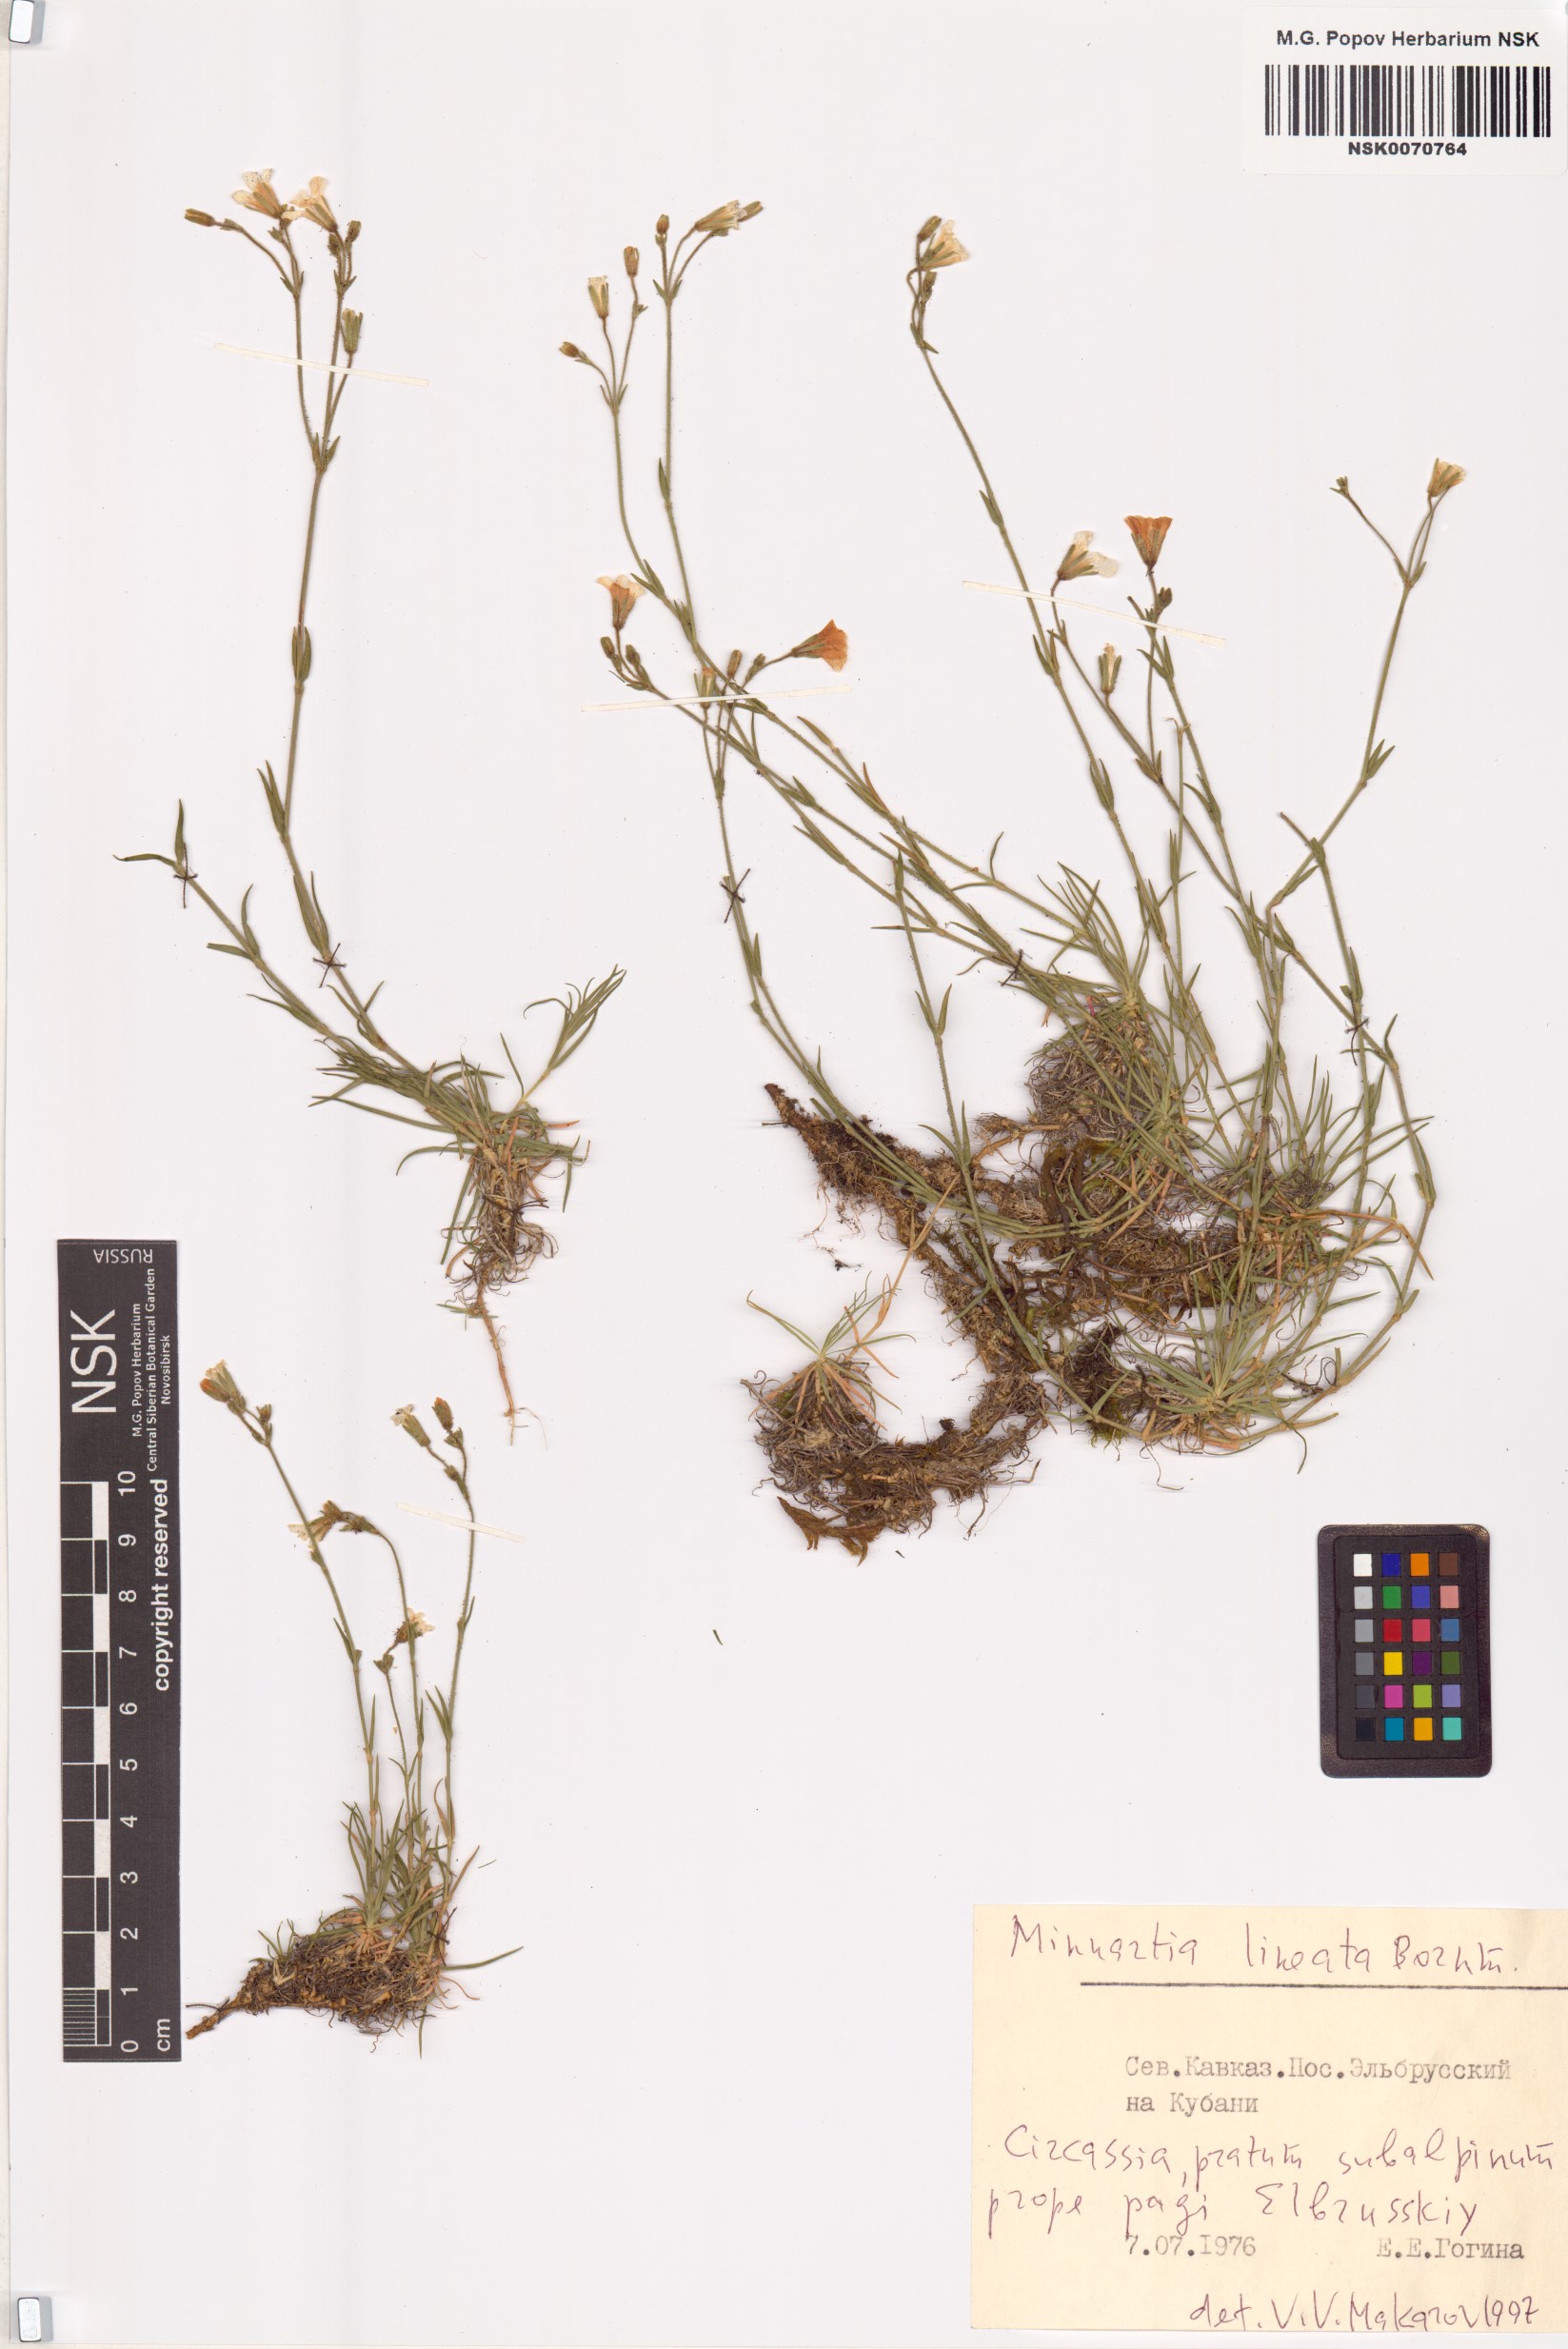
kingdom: Plantae
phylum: Tracheophyta
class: Magnoliopsida
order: Caryophyllales
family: Caryophyllaceae
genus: Sabulina
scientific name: Sabulina lineata
